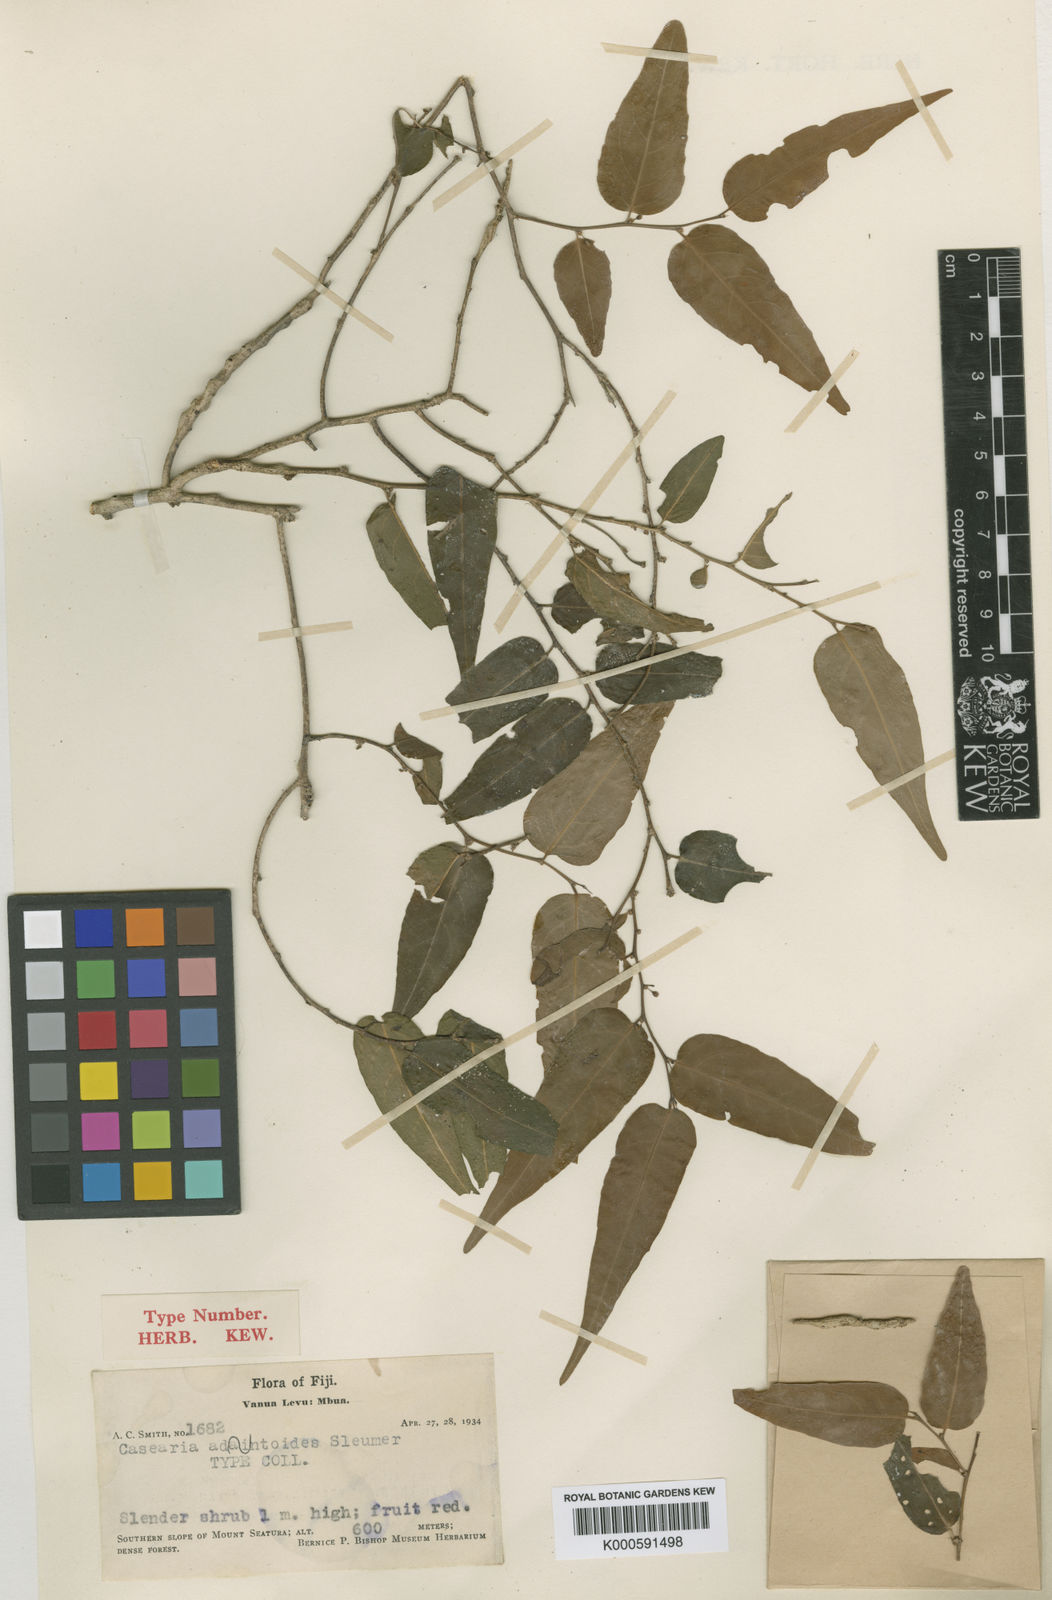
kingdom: Plantae
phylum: Tracheophyta
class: Magnoliopsida
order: Malpighiales
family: Salicaceae
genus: Casearia
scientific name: Casearia adiantoides
